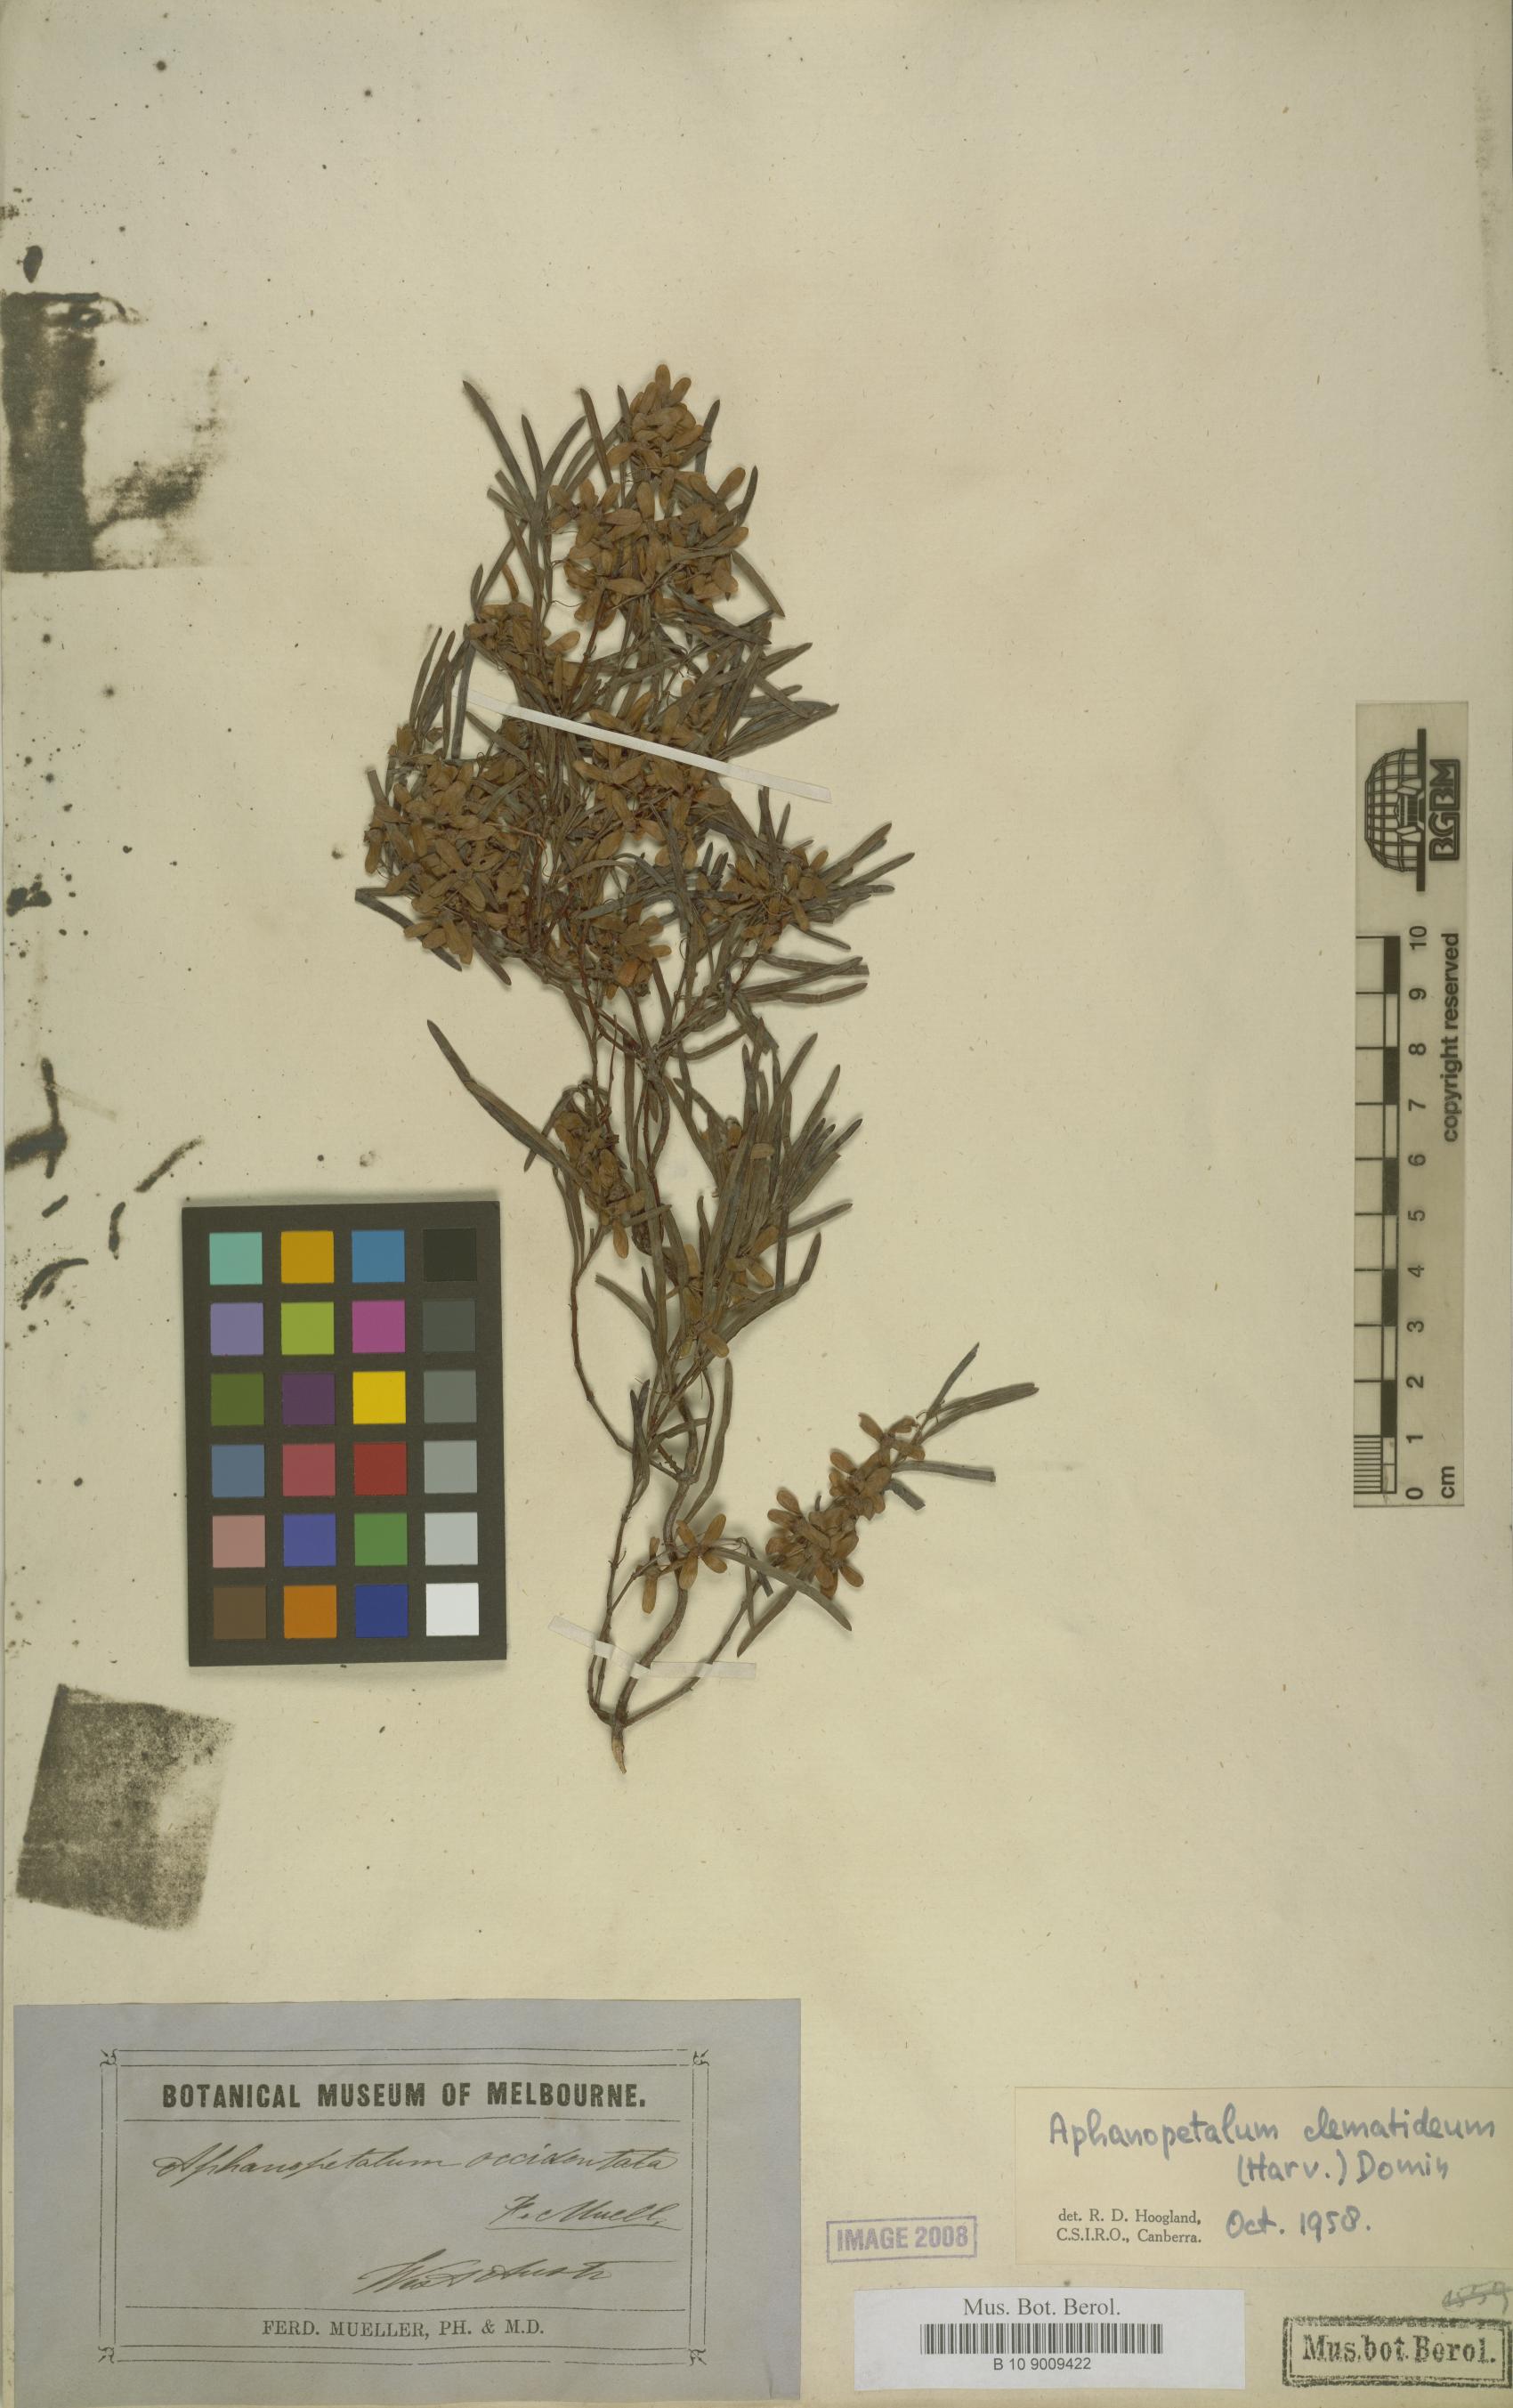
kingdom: Plantae
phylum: Tracheophyta
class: Magnoliopsida
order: Saxifragales
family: Aphanopetalaceae
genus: Aphanopetalum
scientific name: Aphanopetalum clematideum
